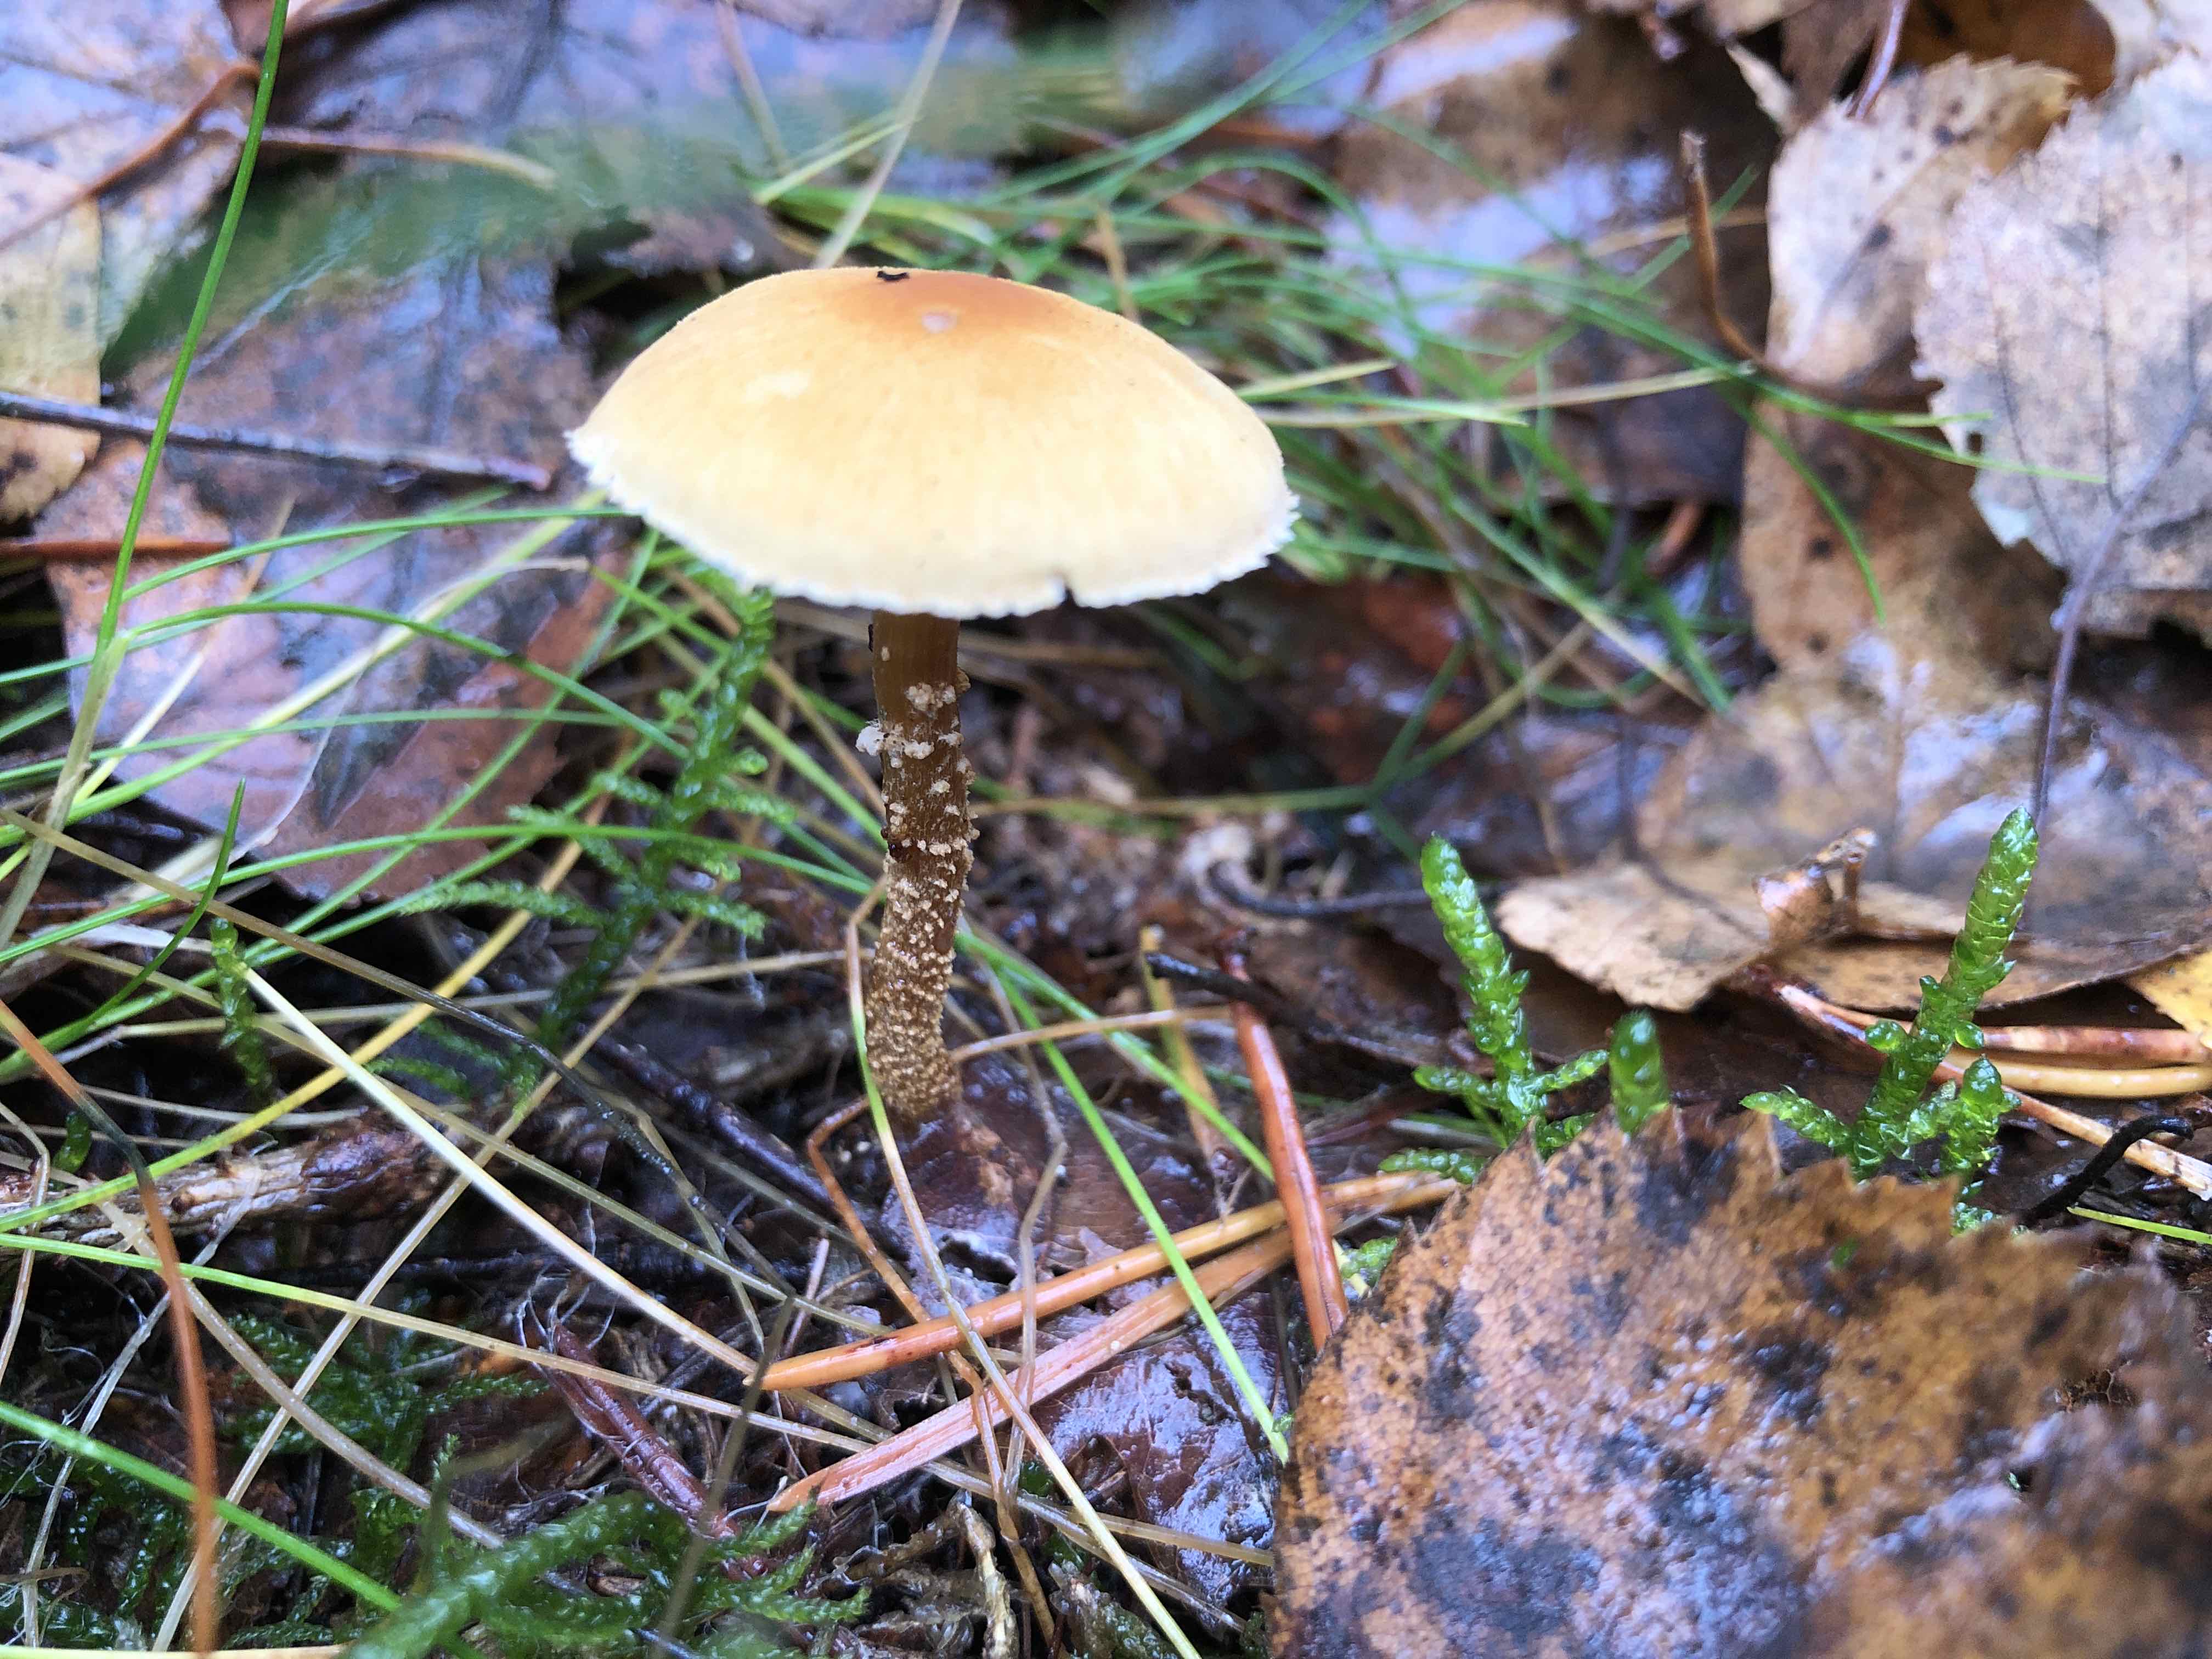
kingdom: Fungi
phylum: Basidiomycota
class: Agaricomycetes
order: Agaricales
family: Tricholomataceae
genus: Cystoderma
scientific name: Cystoderma amianthinum
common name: okkergul grynhat
